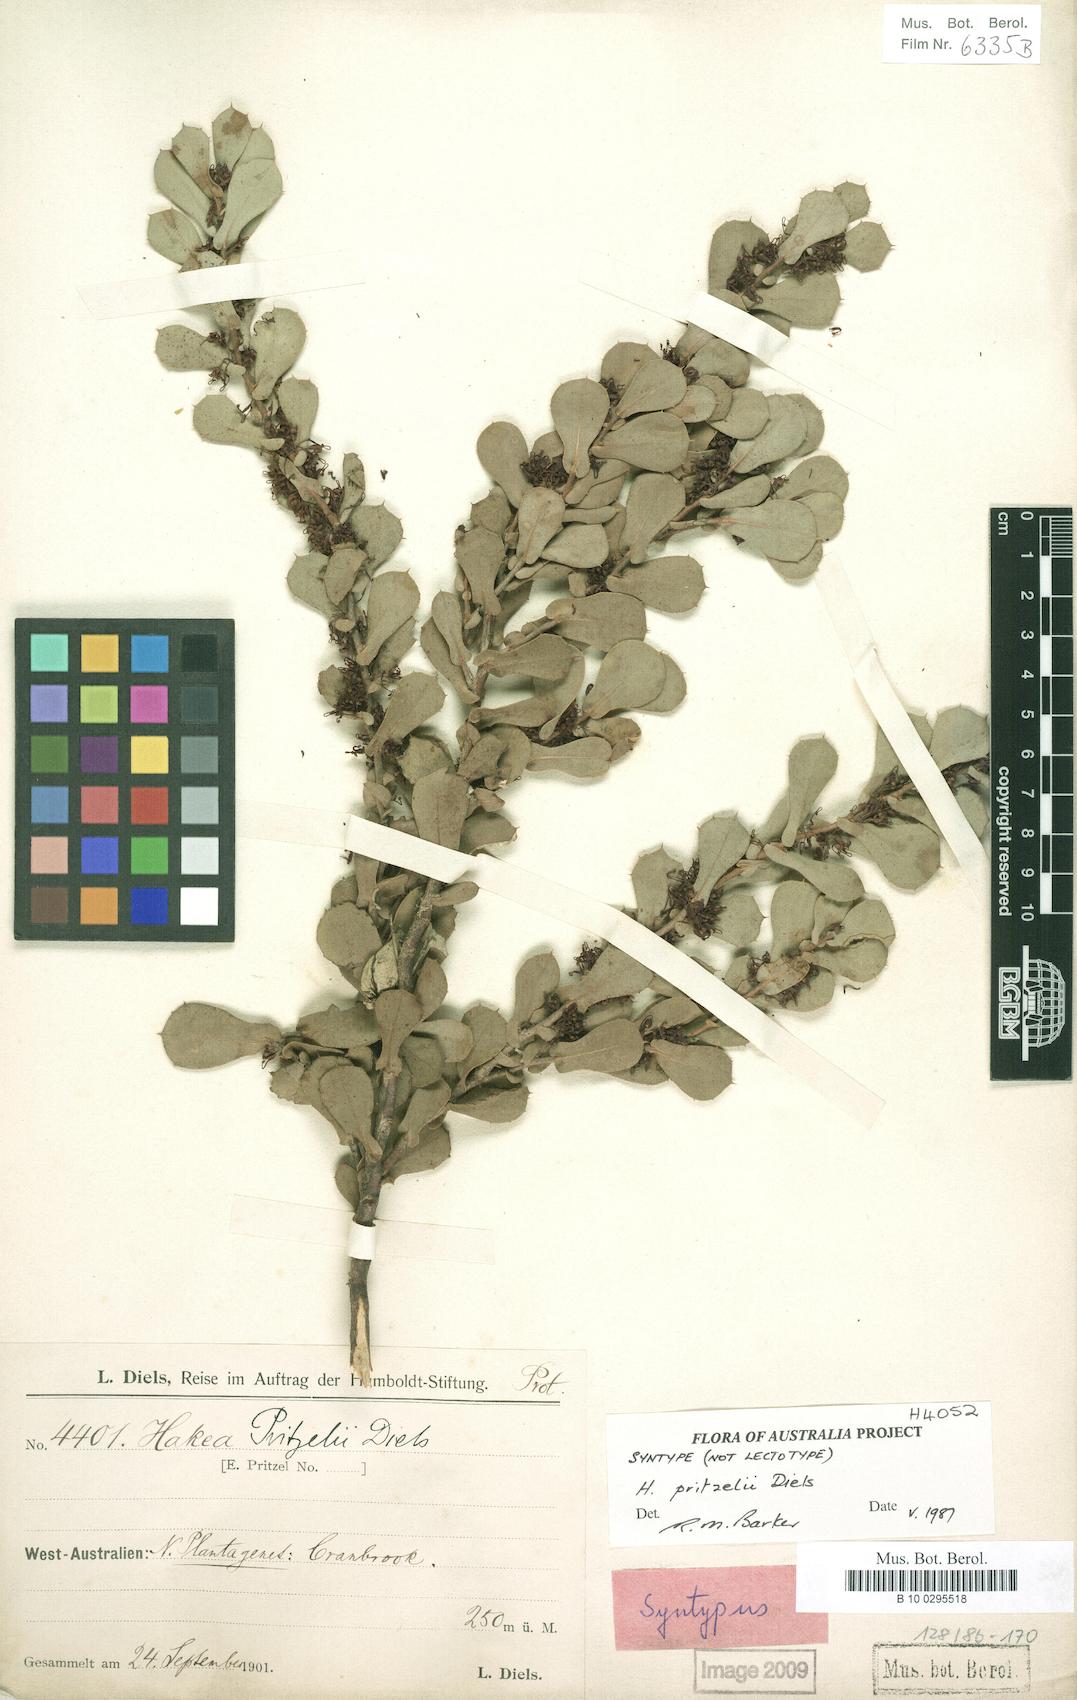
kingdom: Plantae
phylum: Tracheophyta
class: Magnoliopsida
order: Proteales
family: Proteaceae
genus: Hakea
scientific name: Hakea pritzelii
